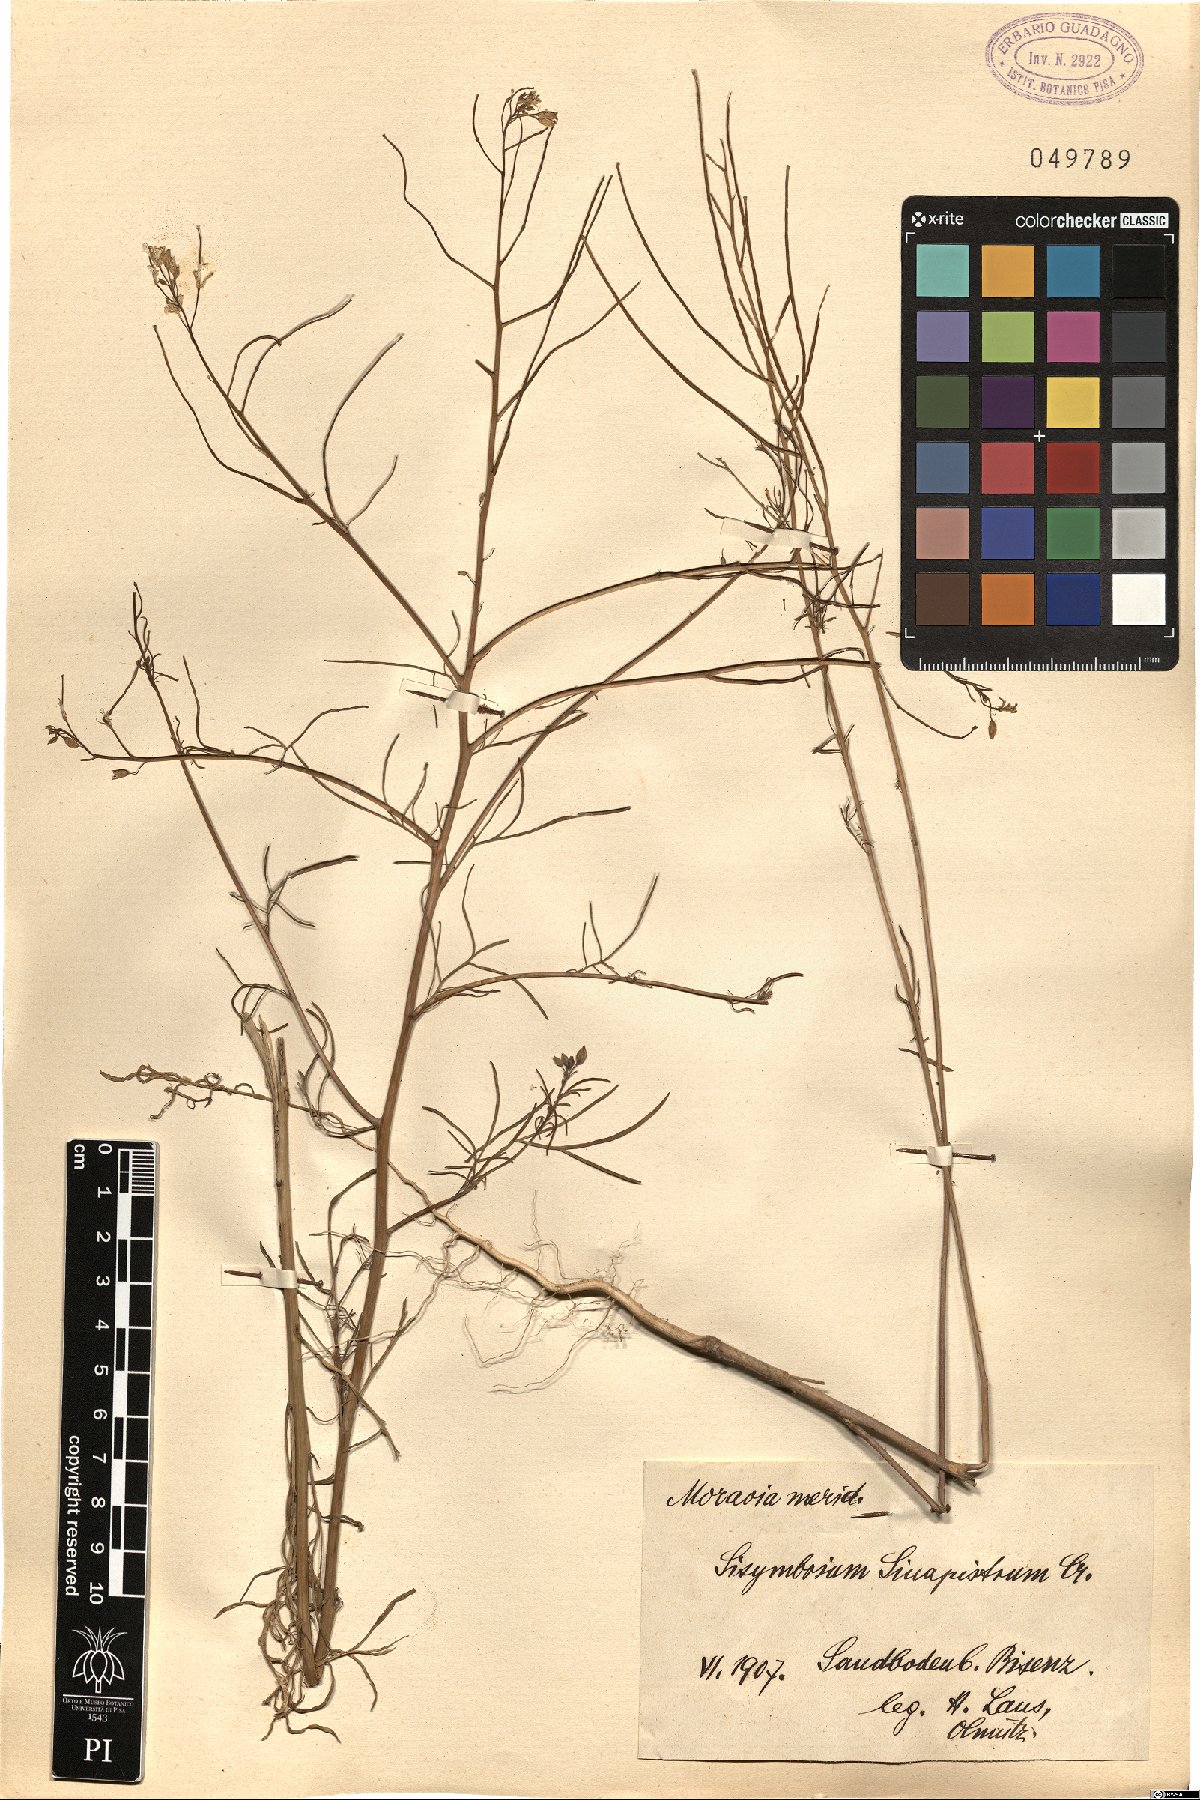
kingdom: Plantae
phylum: Tracheophyta
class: Magnoliopsida
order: Brassicales
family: Brassicaceae
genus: Sisymbrium
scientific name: Sisymbrium altissimum
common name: Tall rocket
